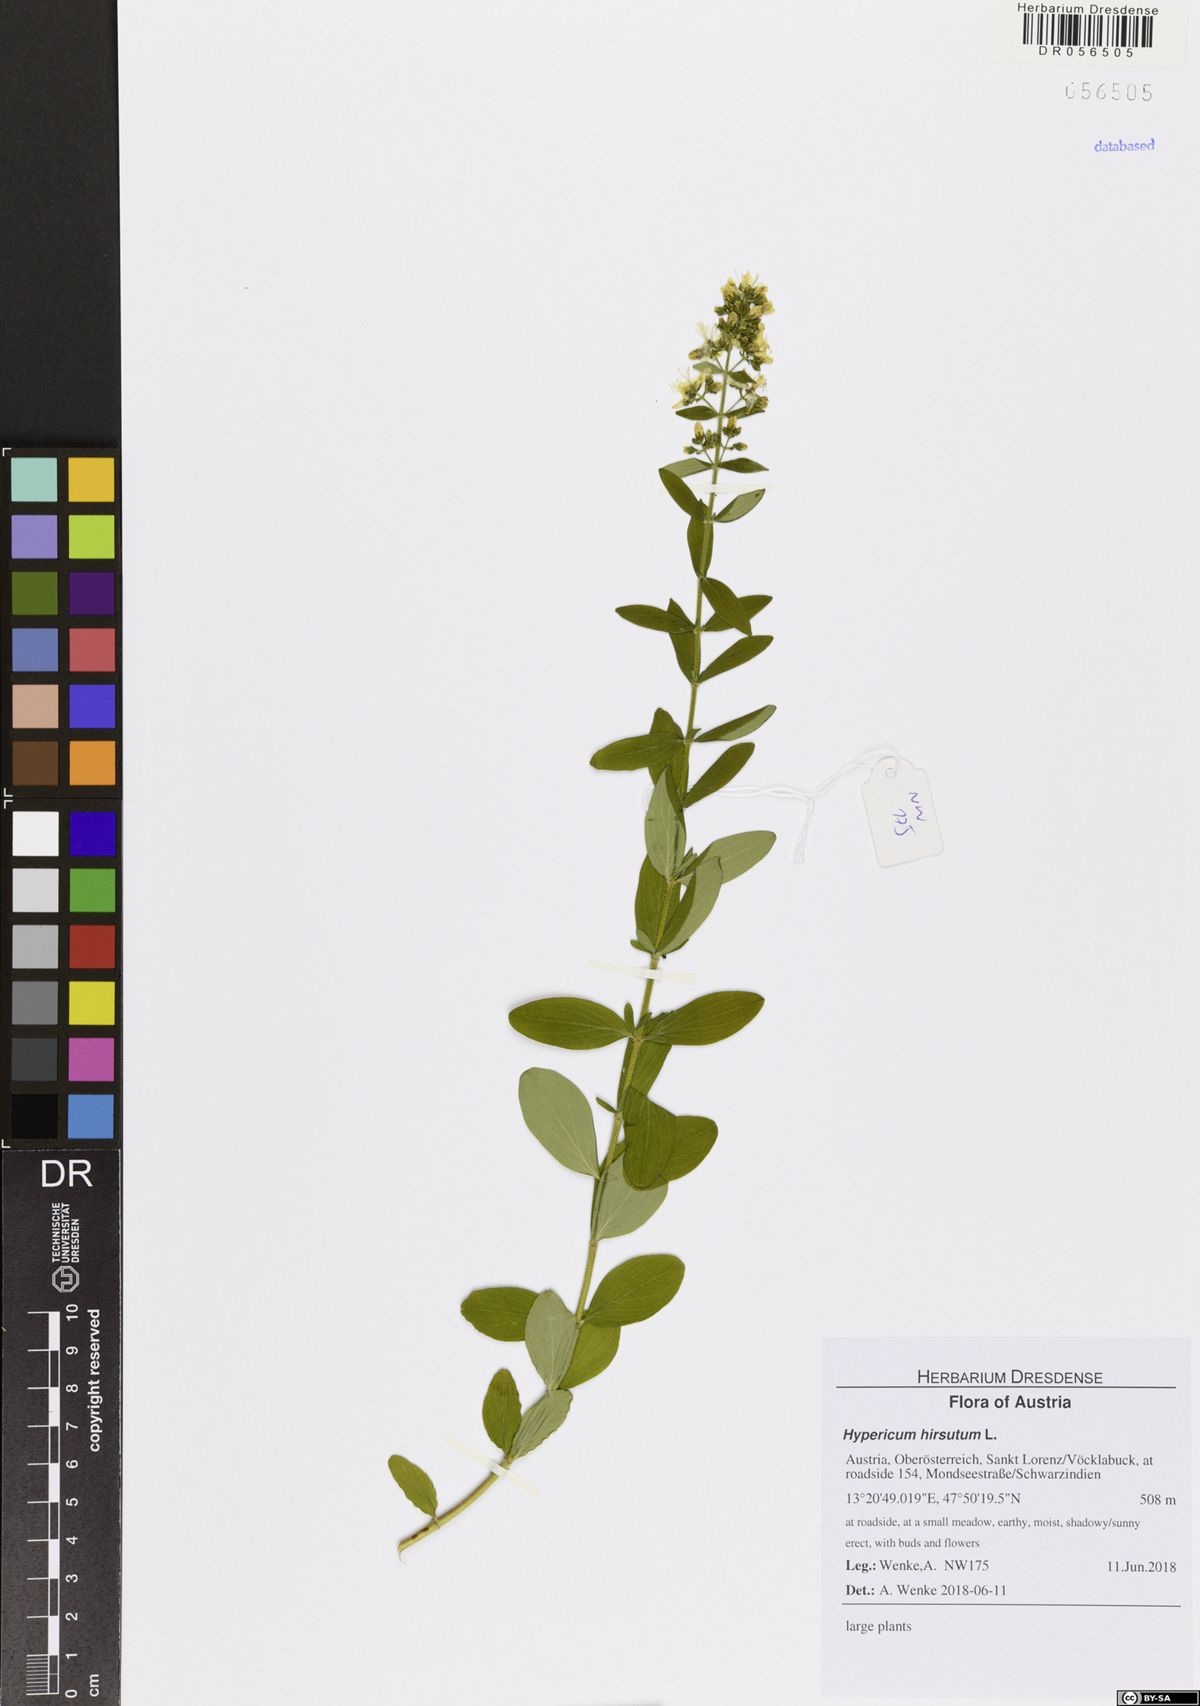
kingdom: Plantae
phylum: Tracheophyta
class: Magnoliopsida
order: Malpighiales
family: Hypericaceae
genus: Hypericum
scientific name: Hypericum hirsutum
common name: Hairy st. john's-wort
